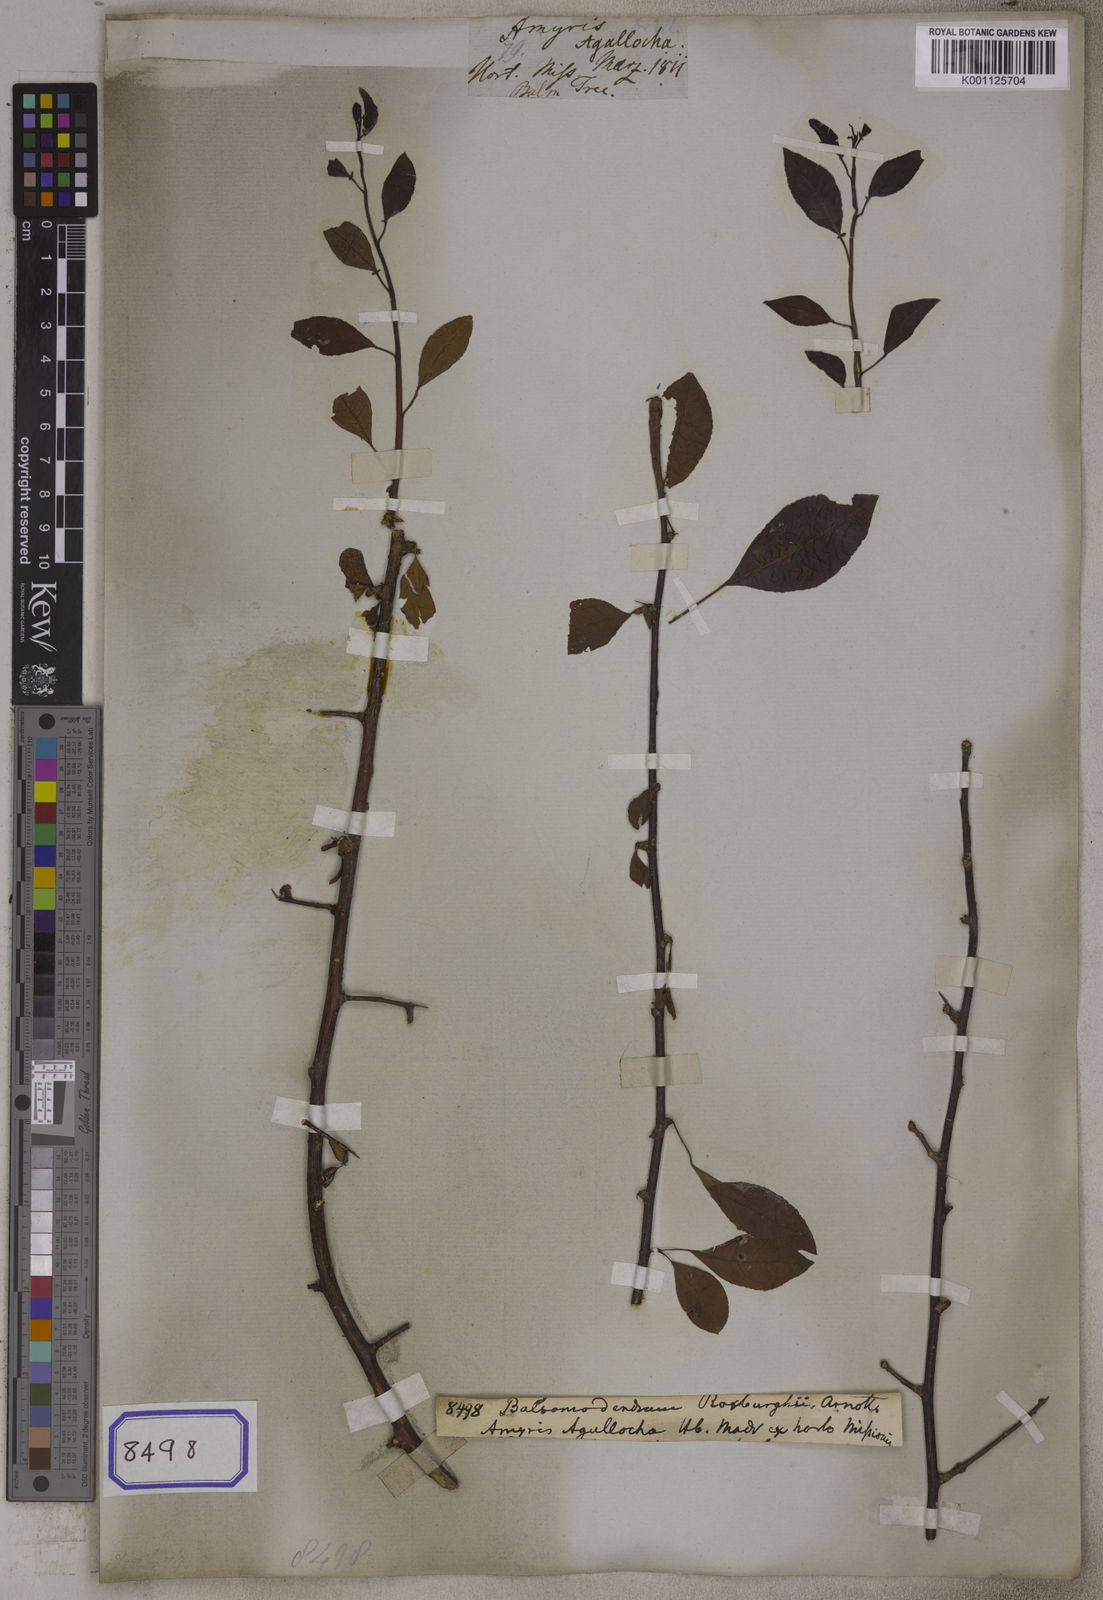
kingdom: Plantae
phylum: Tracheophyta
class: Magnoliopsida
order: Sapindales
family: Burseraceae
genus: Commiphora
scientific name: Commiphora madagascariensis
